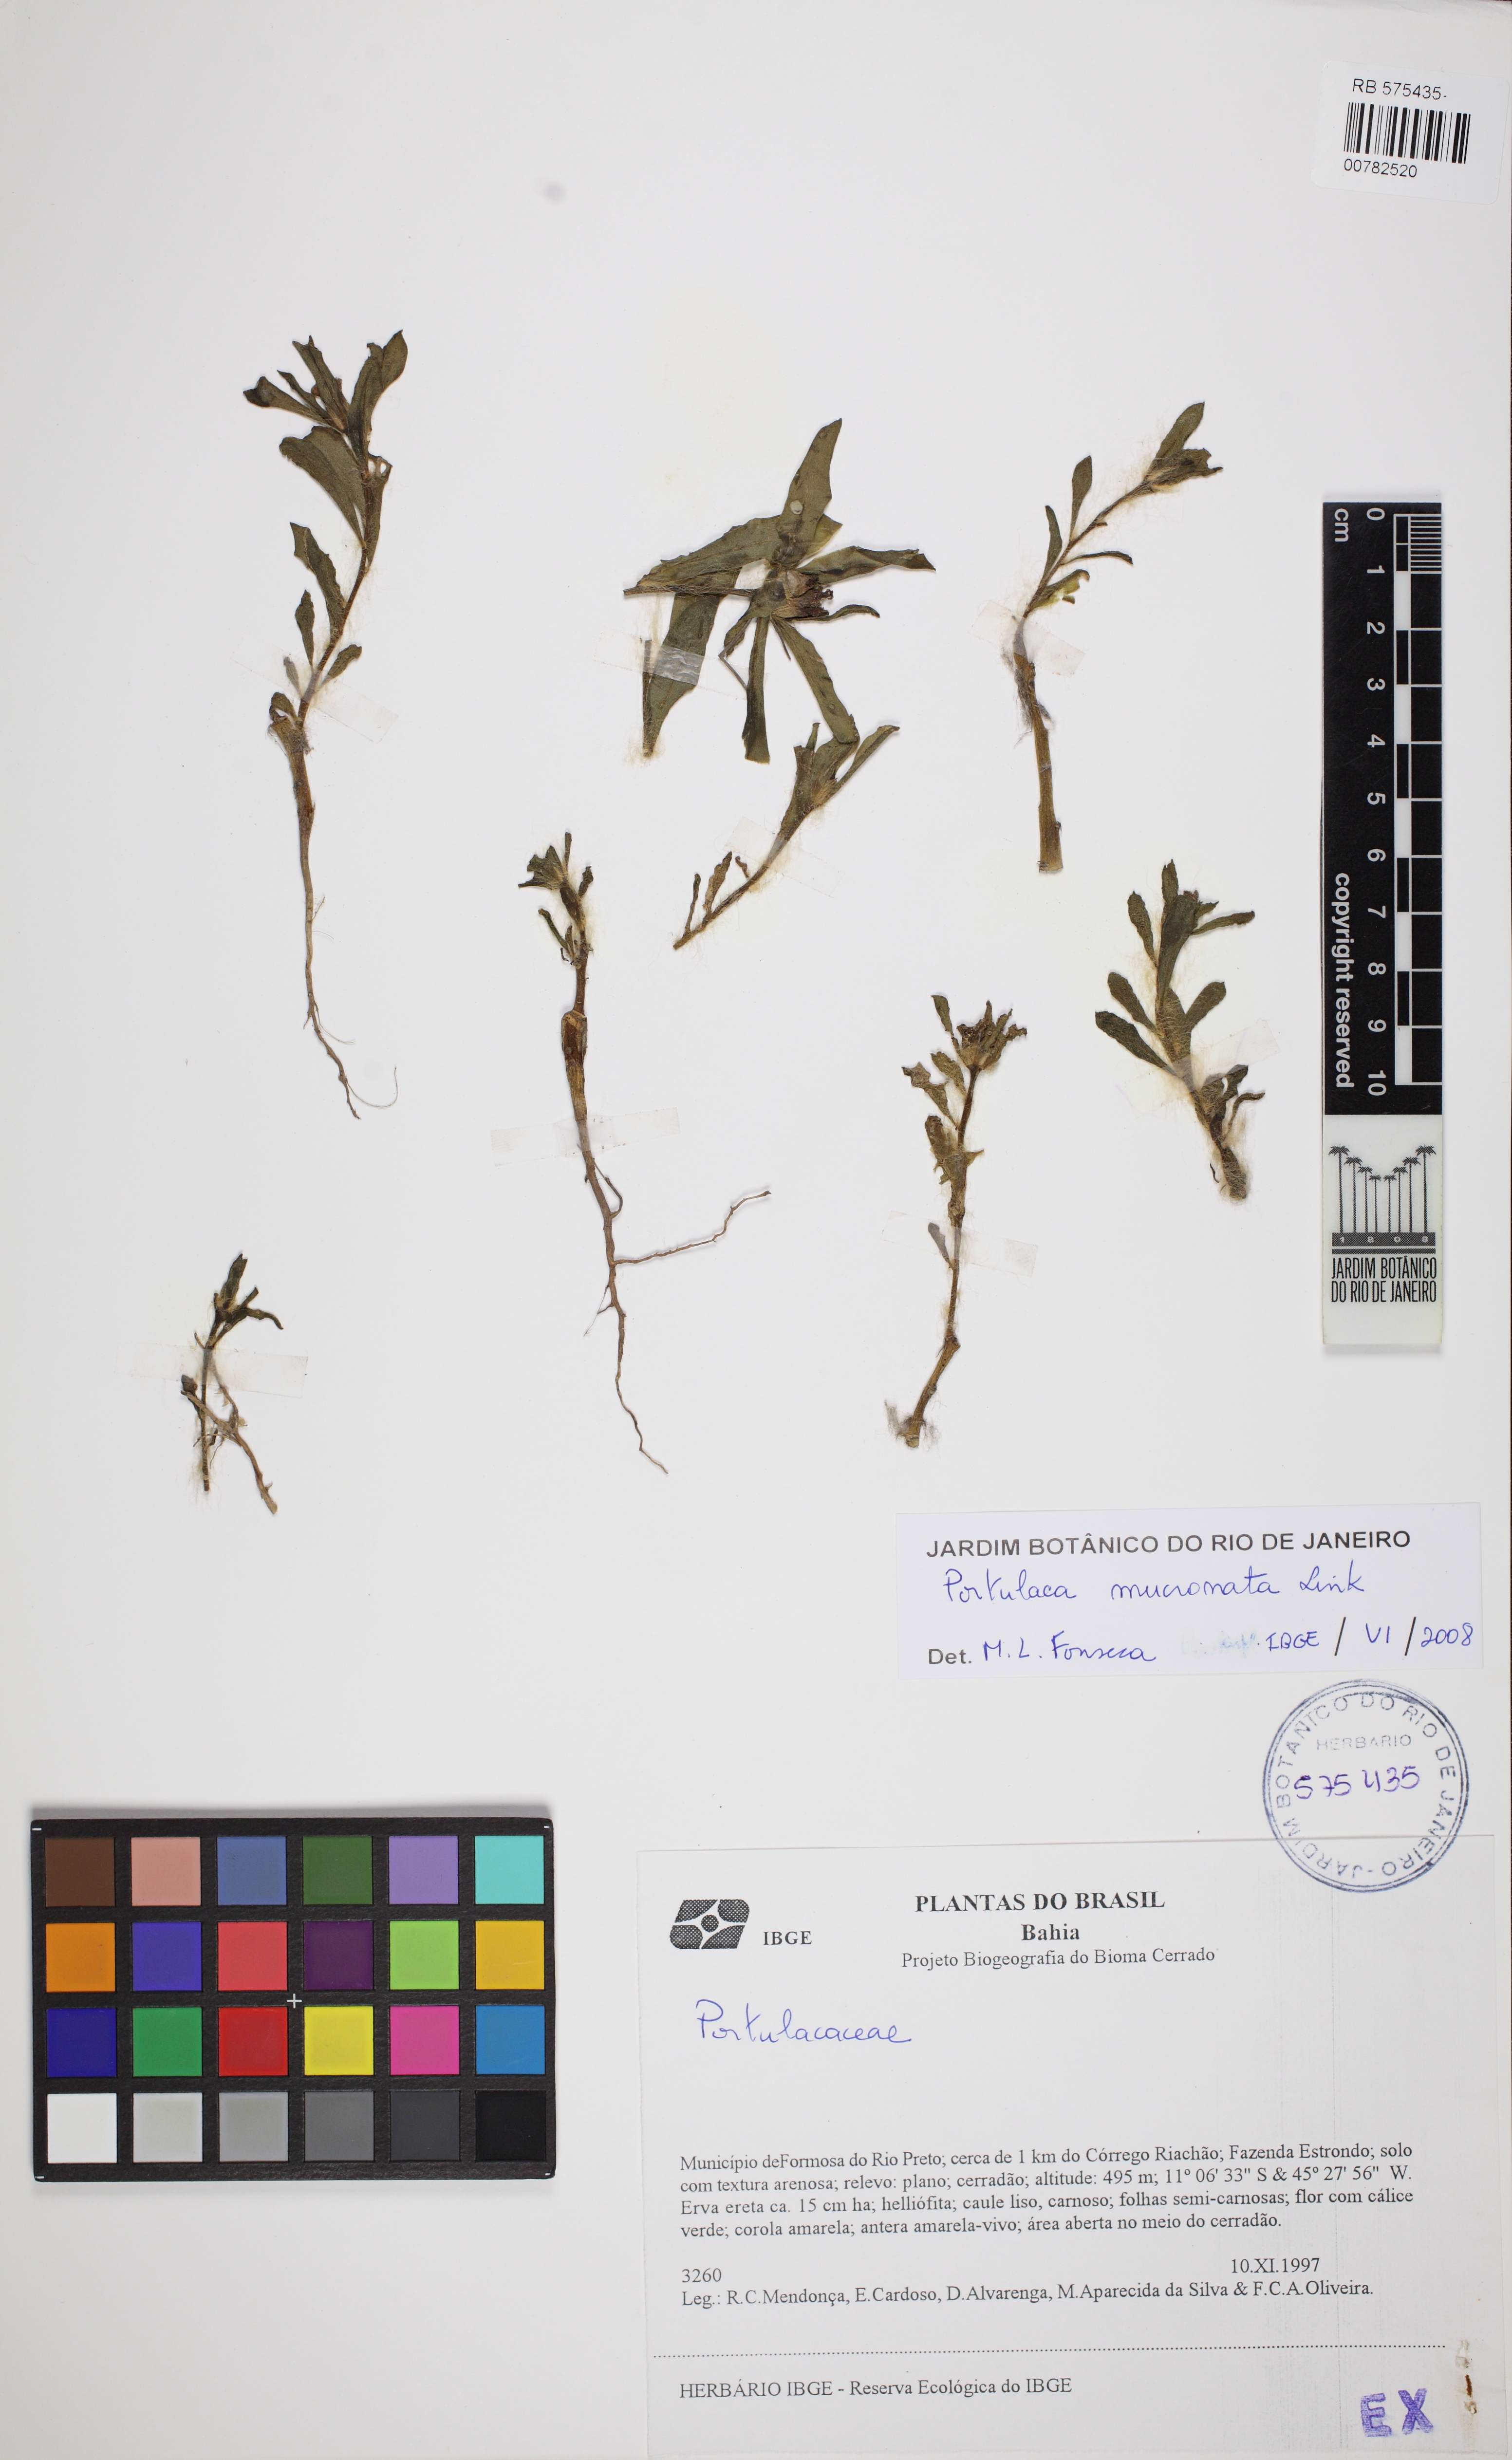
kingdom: Plantae
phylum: Tracheophyta
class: Magnoliopsida
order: Caryophyllales
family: Portulacaceae
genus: Portulaca
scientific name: Portulaca mucronata
